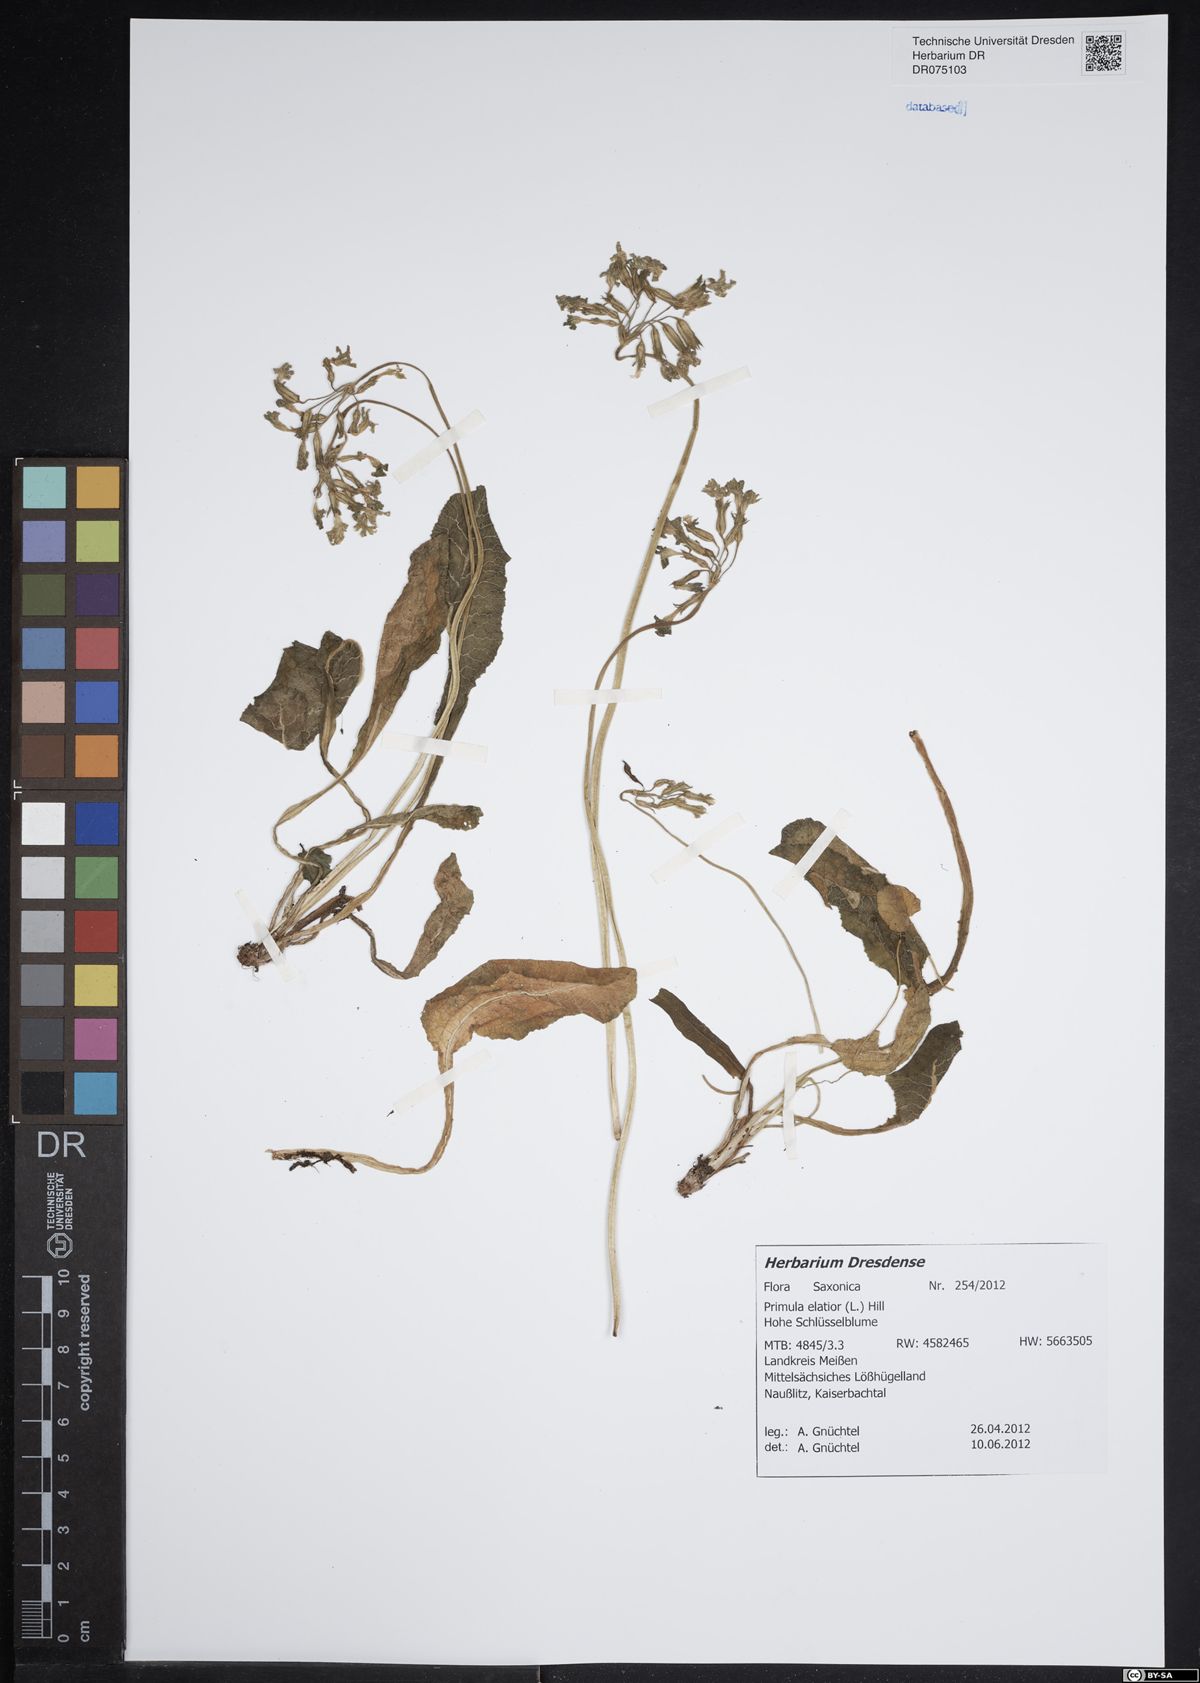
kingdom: Plantae
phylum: Tracheophyta
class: Magnoliopsida
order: Ericales
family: Primulaceae
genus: Primula
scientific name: Primula elatior
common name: Oxlip
